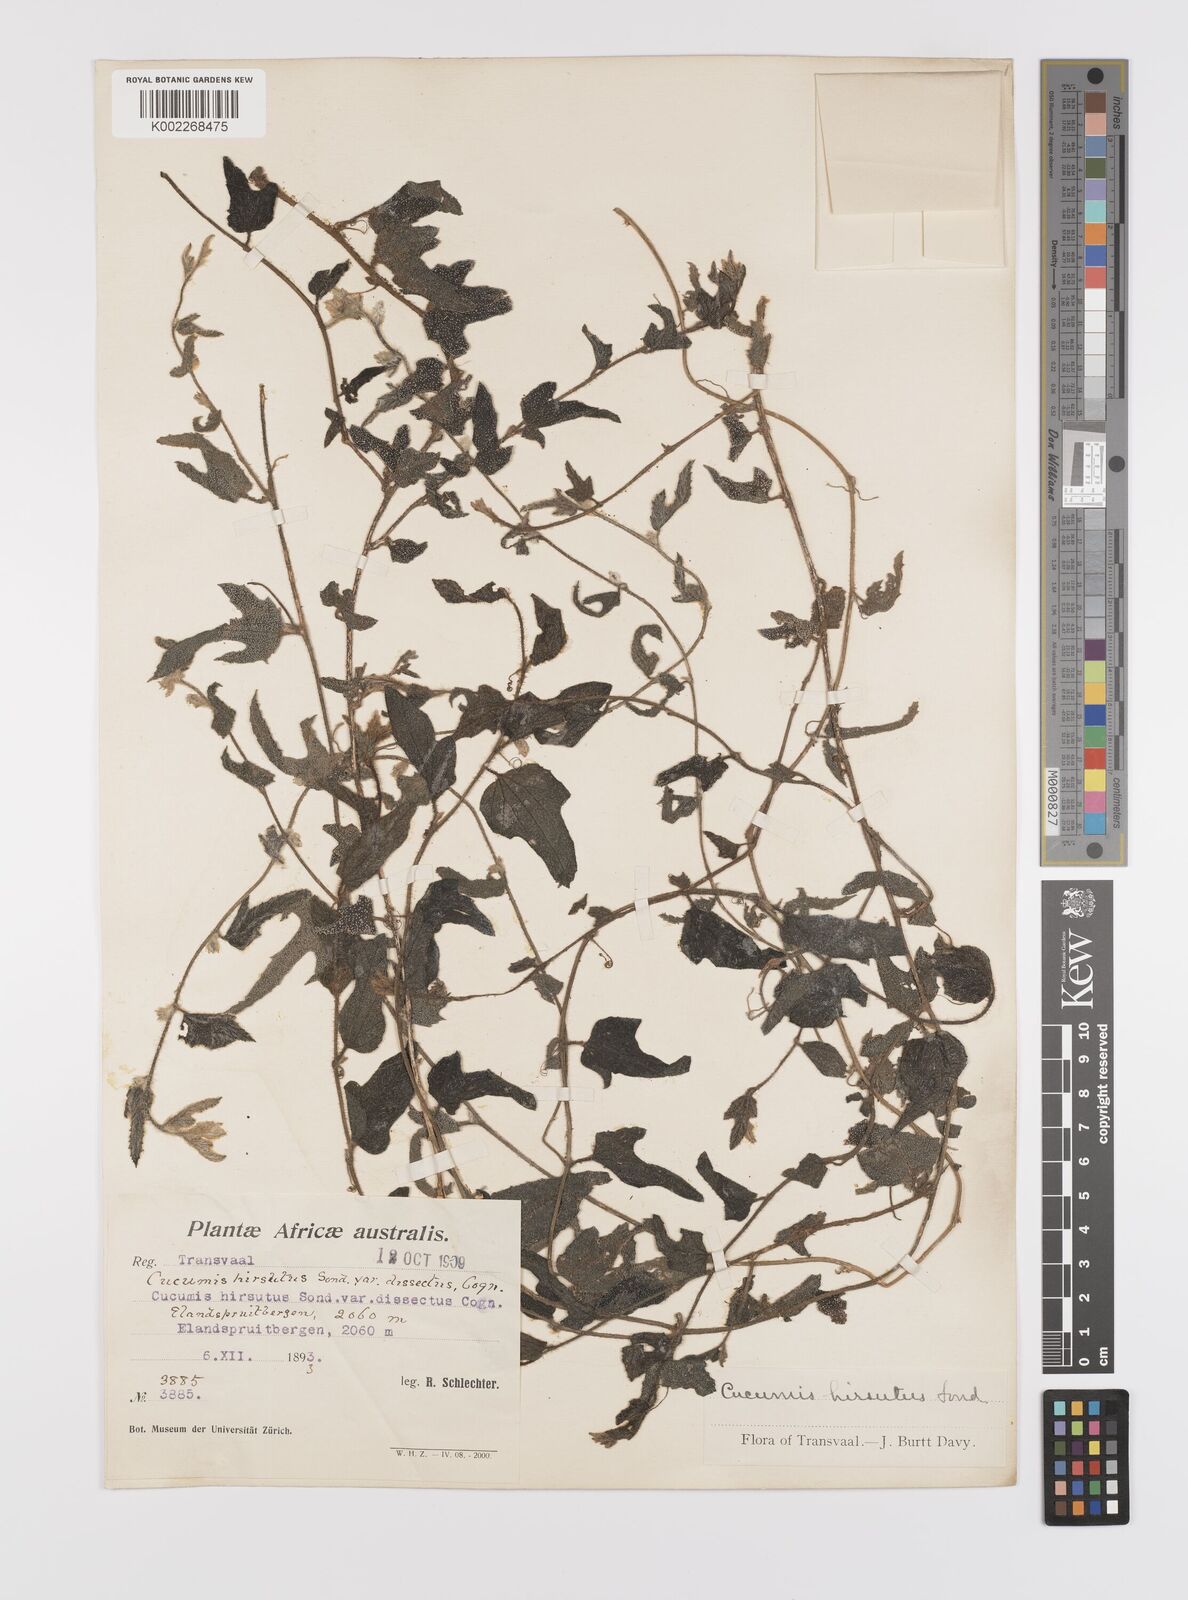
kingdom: Plantae
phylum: Tracheophyta
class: Magnoliopsida
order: Cucurbitales
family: Cucurbitaceae
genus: Cucumis
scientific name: Cucumis hirsutus
